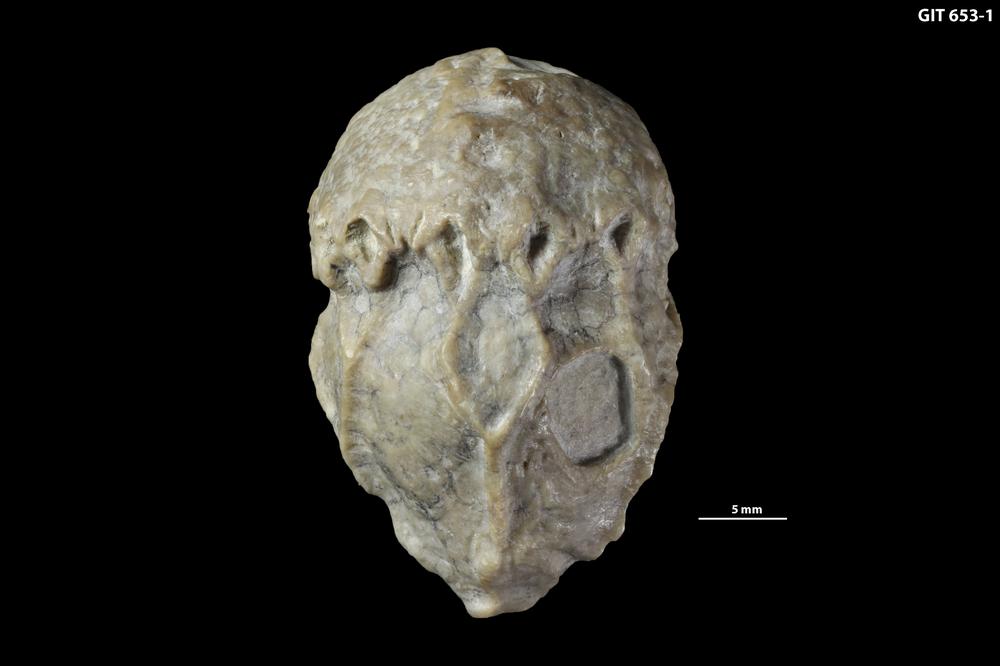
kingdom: Animalia
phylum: Echinodermata
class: Crinoidea
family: Pachycephalocrinidae
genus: Pachycephalocrinus
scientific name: Pachycephalocrinus jaanussoni
